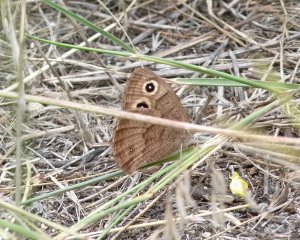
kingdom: Animalia
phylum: Arthropoda
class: Insecta
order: Lepidoptera
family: Nymphalidae
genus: Cercyonis
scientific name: Cercyonis pegala
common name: Common Wood-Nymph
